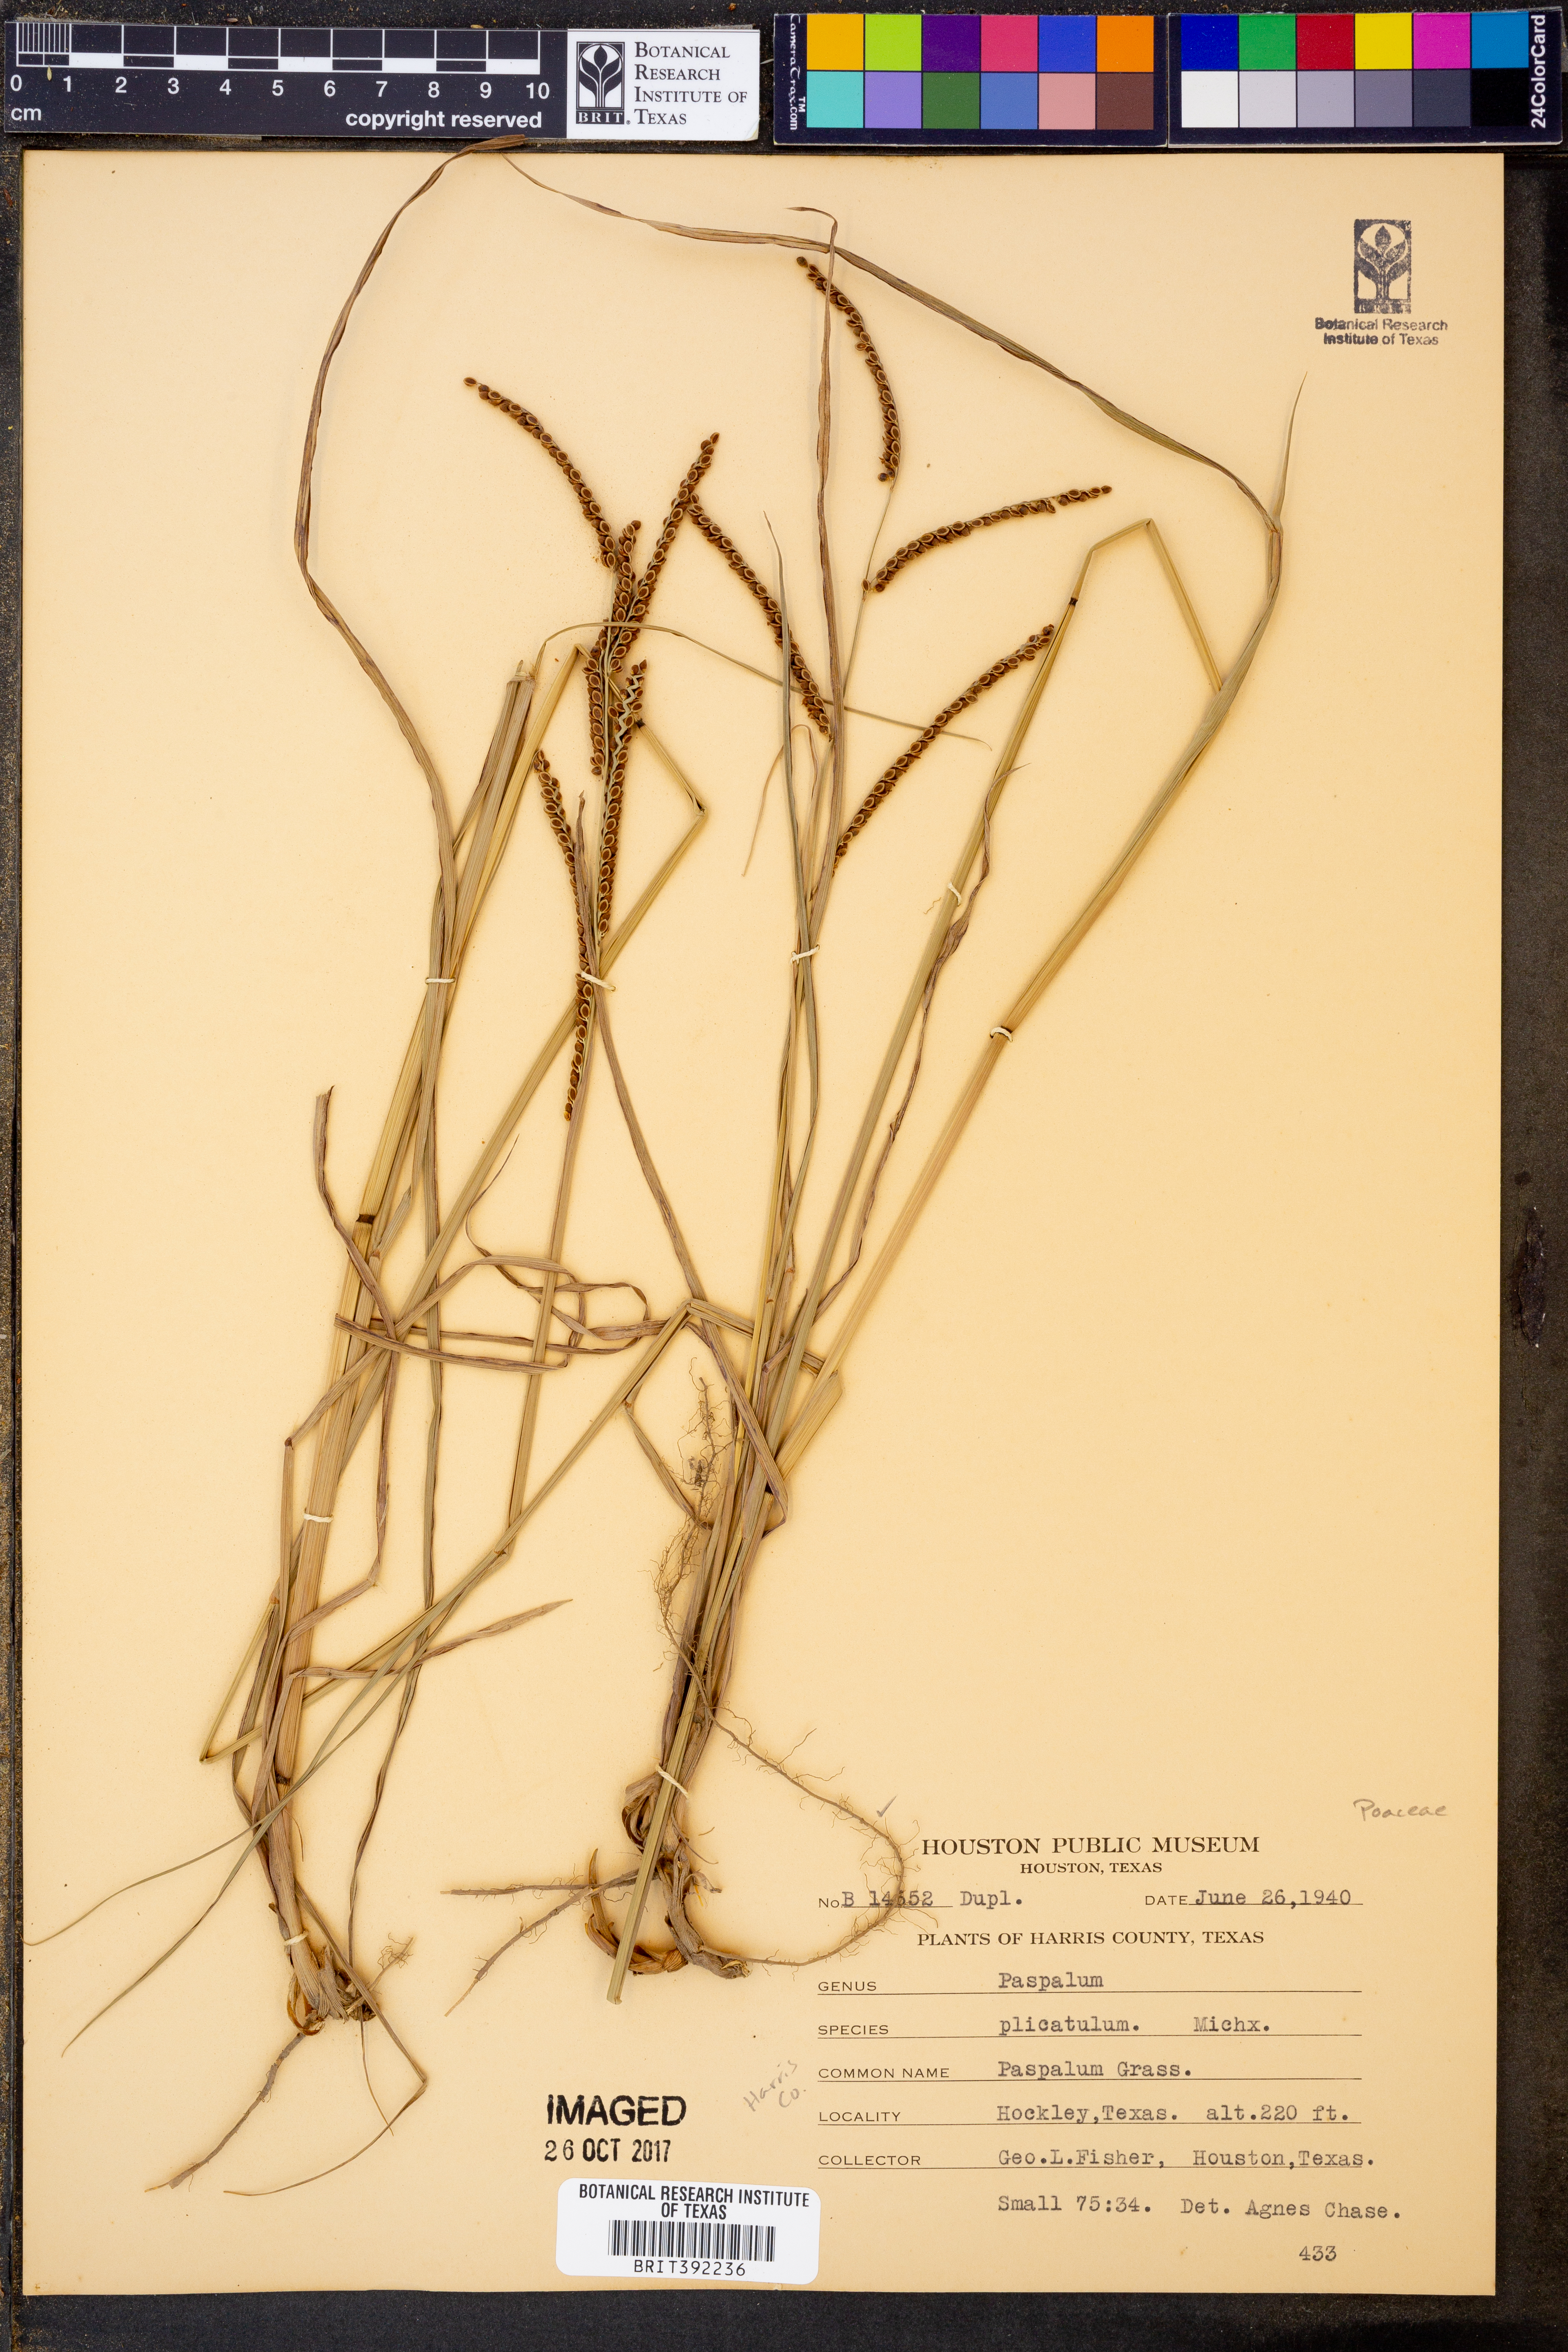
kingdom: Plantae
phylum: Tracheophyta
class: Liliopsida
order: Poales
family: Poaceae
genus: Paspalum
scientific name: Paspalum plicatulum
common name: Top paspalum
